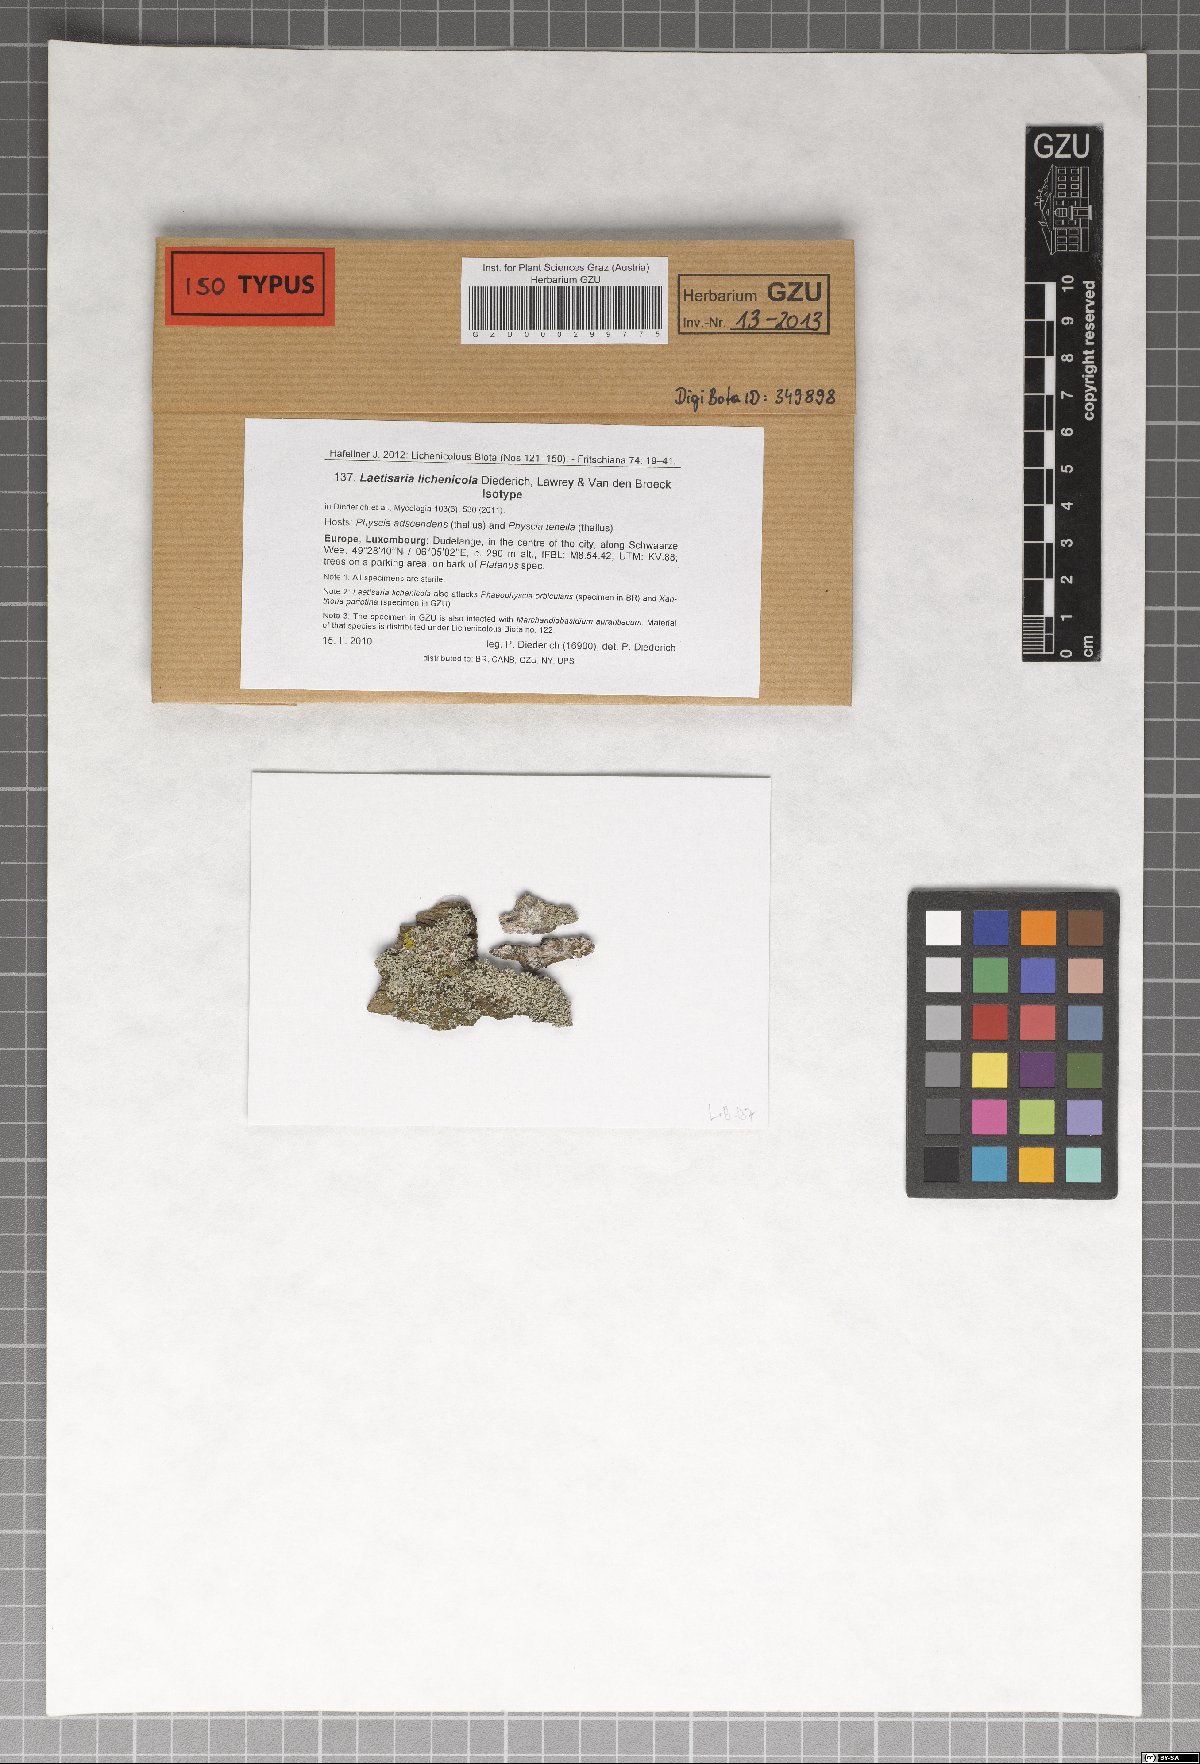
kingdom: Fungi
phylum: Basidiomycota
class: Agaricomycetes
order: Corticiales
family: Corticiaceae
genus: Laetisaria
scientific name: Laetisaria lichenicola
